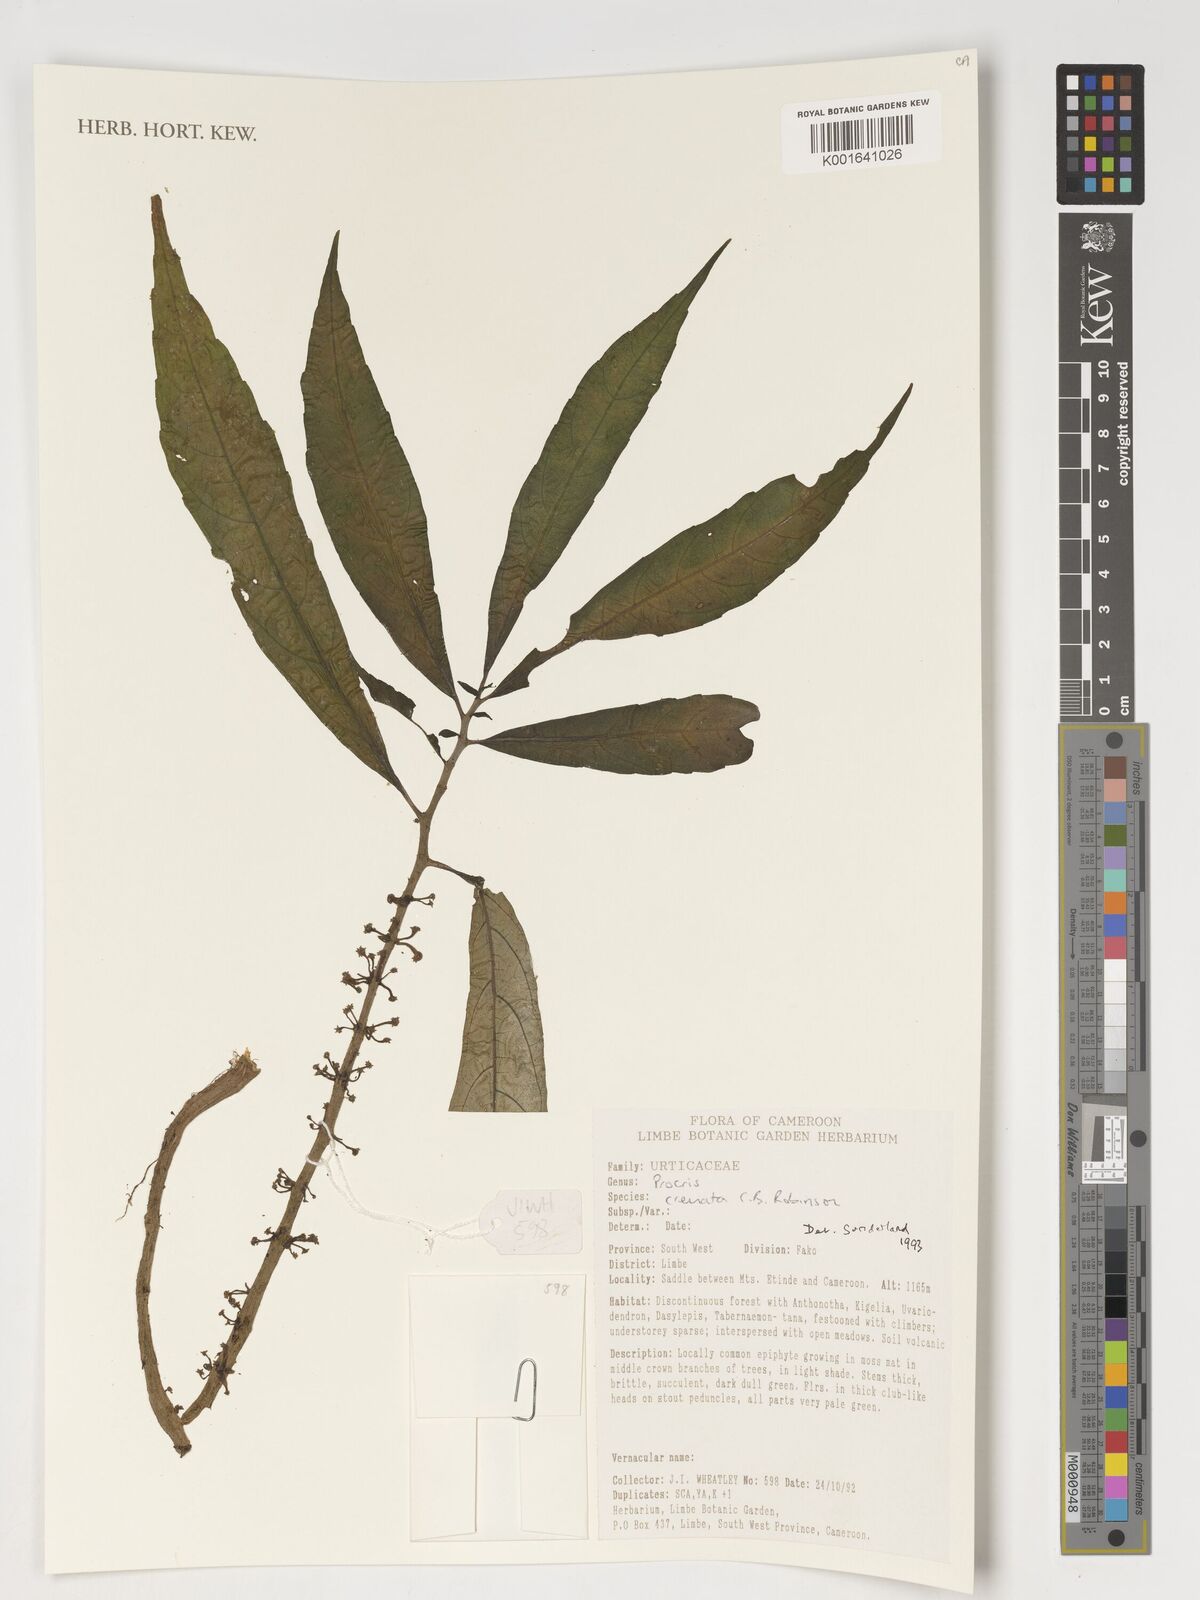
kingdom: Plantae
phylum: Tracheophyta
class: Magnoliopsida
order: Rosales
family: Urticaceae
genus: Procris
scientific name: Procris crenata
